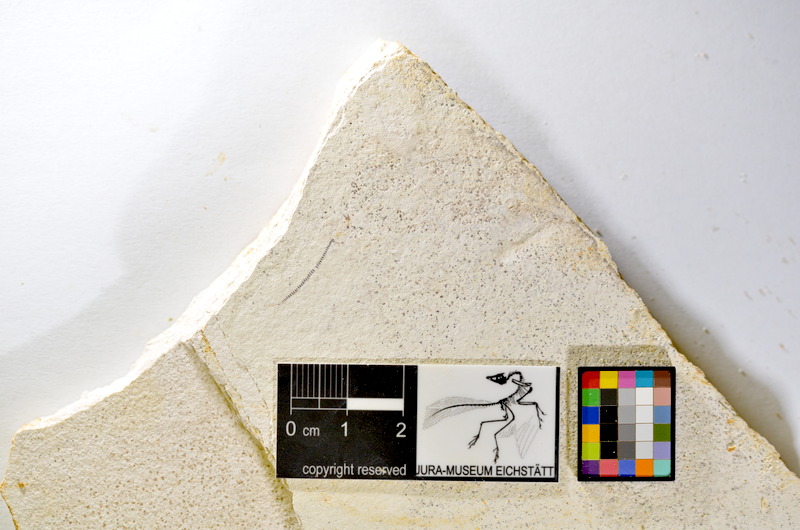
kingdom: Animalia
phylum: Chordata
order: Salmoniformes
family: Orthogonikleithridae
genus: Orthogonikleithrus
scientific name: Orthogonikleithrus hoelli
